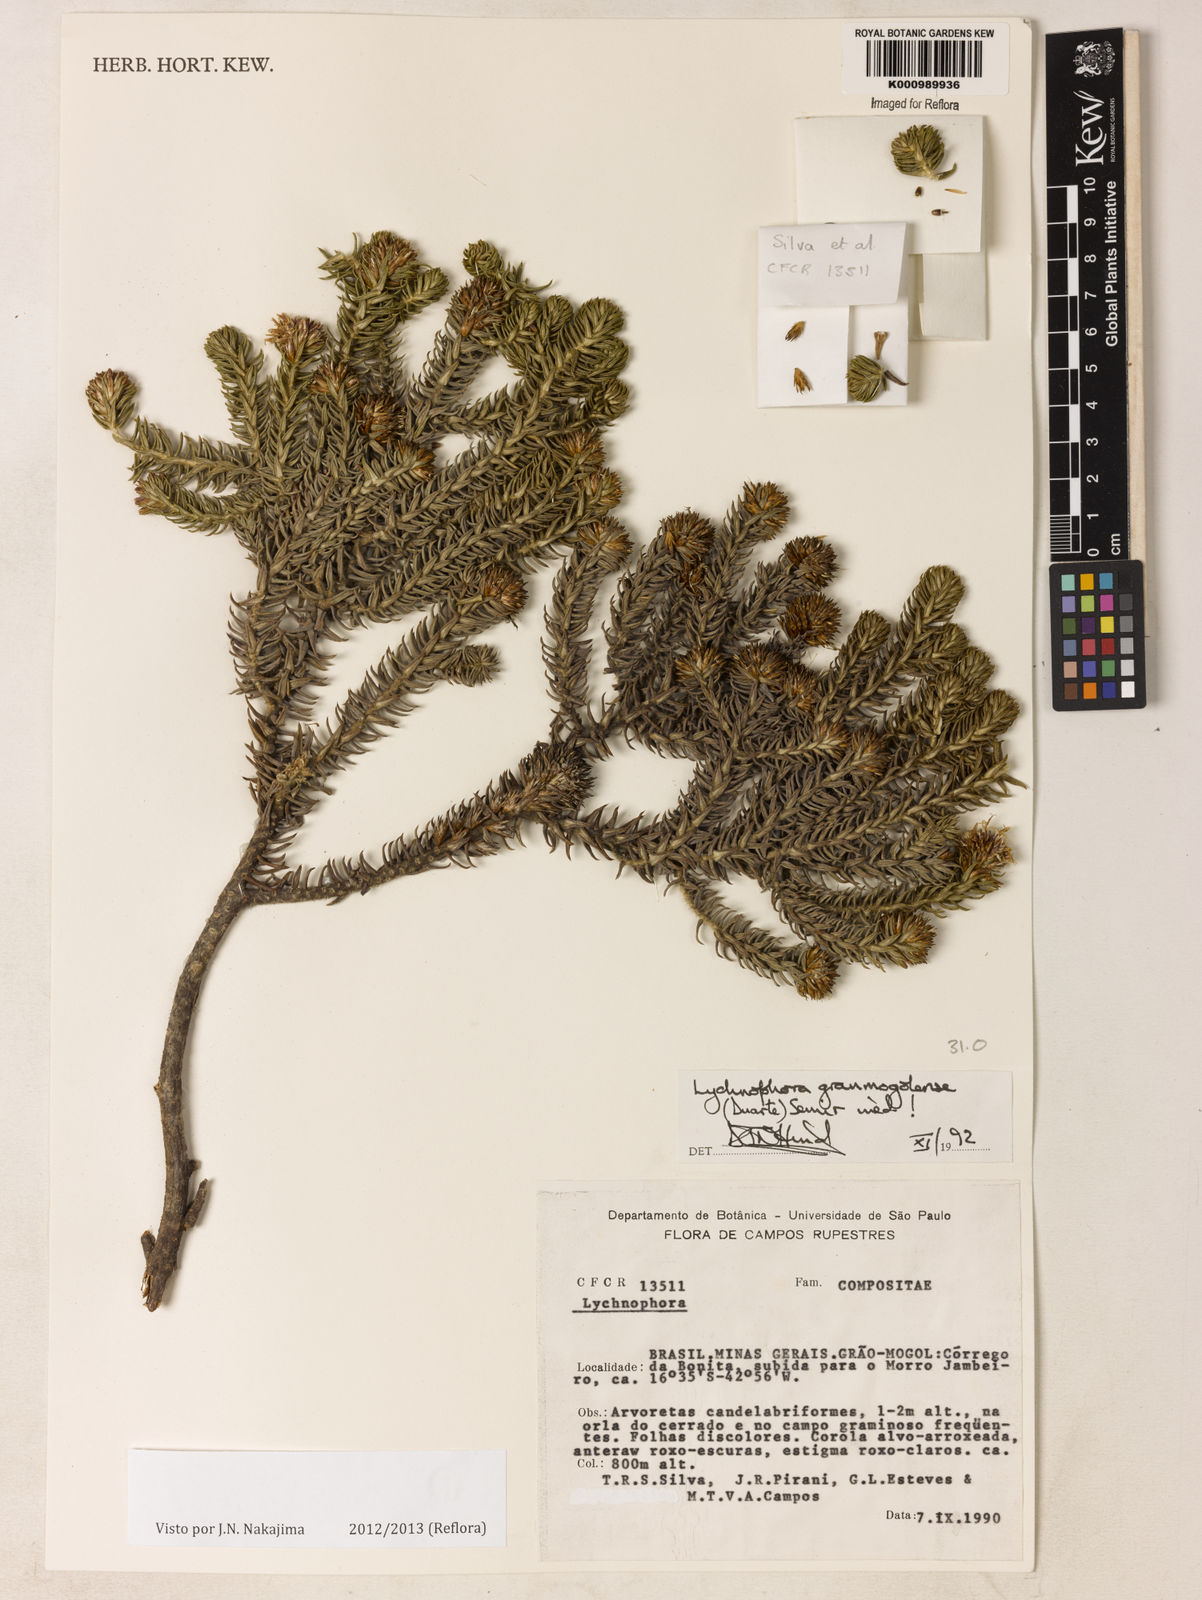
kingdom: Plantae
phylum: Tracheophyta
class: Magnoliopsida
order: Asterales
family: Asteraceae
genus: Lychnophora
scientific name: Lychnophora granmogolensis
